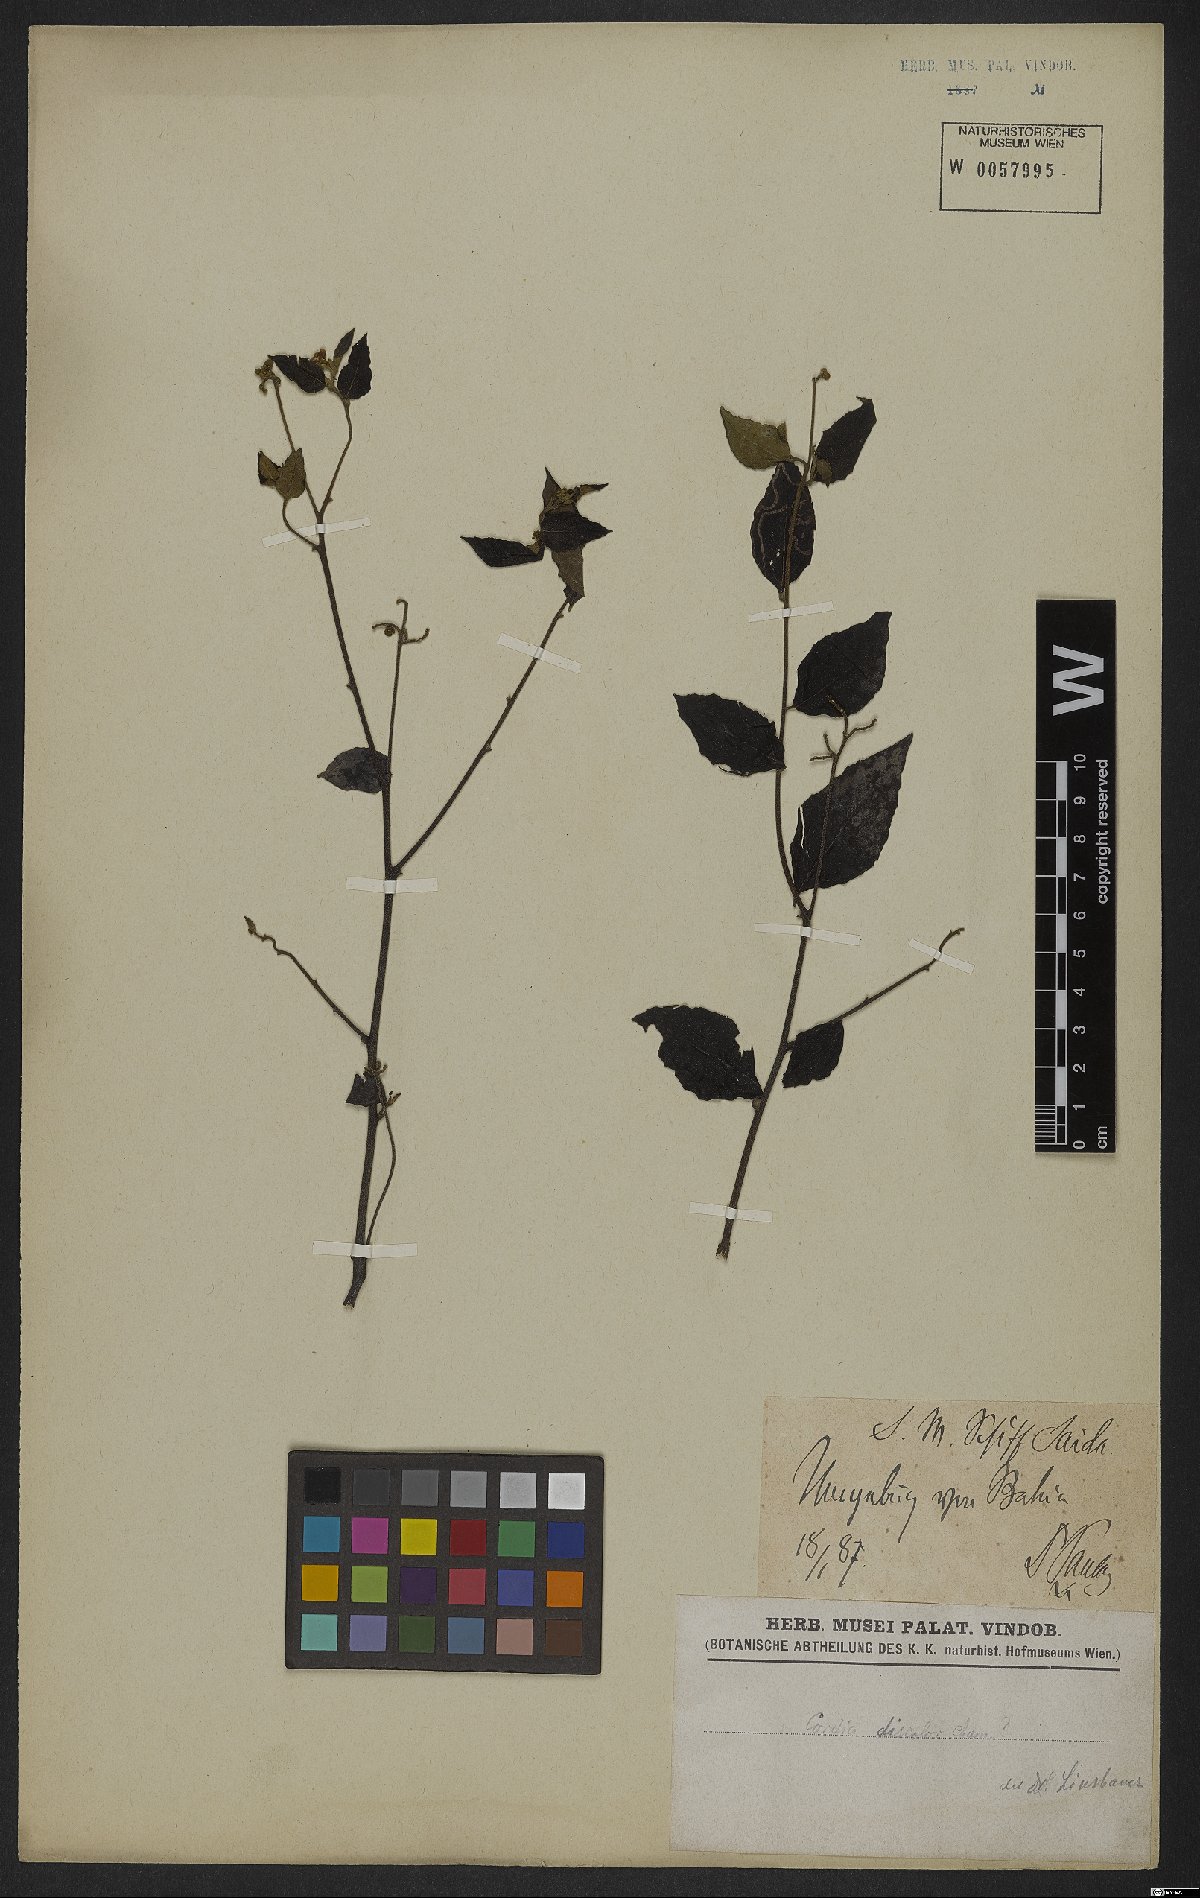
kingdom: Plantae
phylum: Tracheophyta
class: Magnoliopsida
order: Boraginales
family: Cordiaceae
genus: Varronia
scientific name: Varronia discolor
